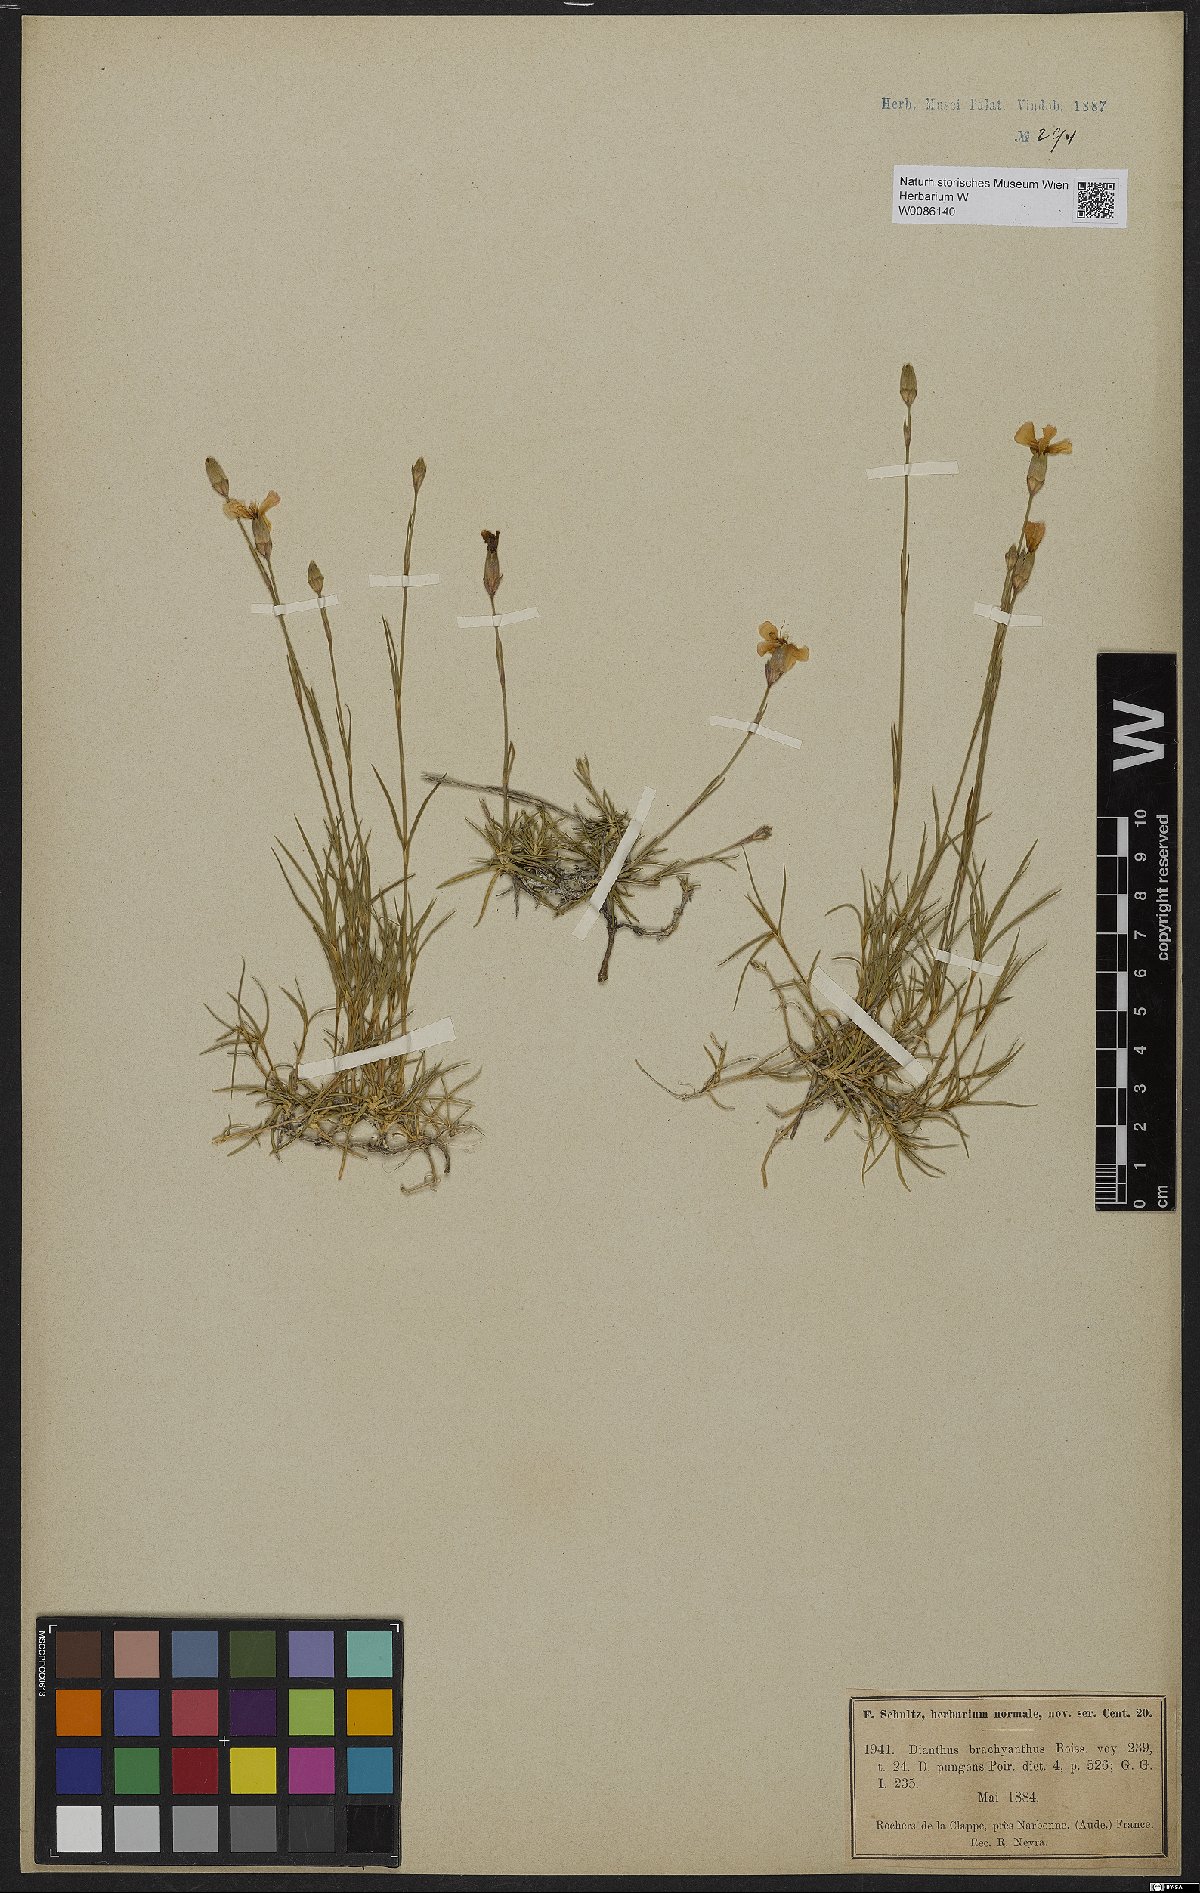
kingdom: Plantae
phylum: Tracheophyta
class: Magnoliopsida
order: Caryophyllales
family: Caryophyllaceae
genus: Dianthus
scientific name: Dianthus pungens
